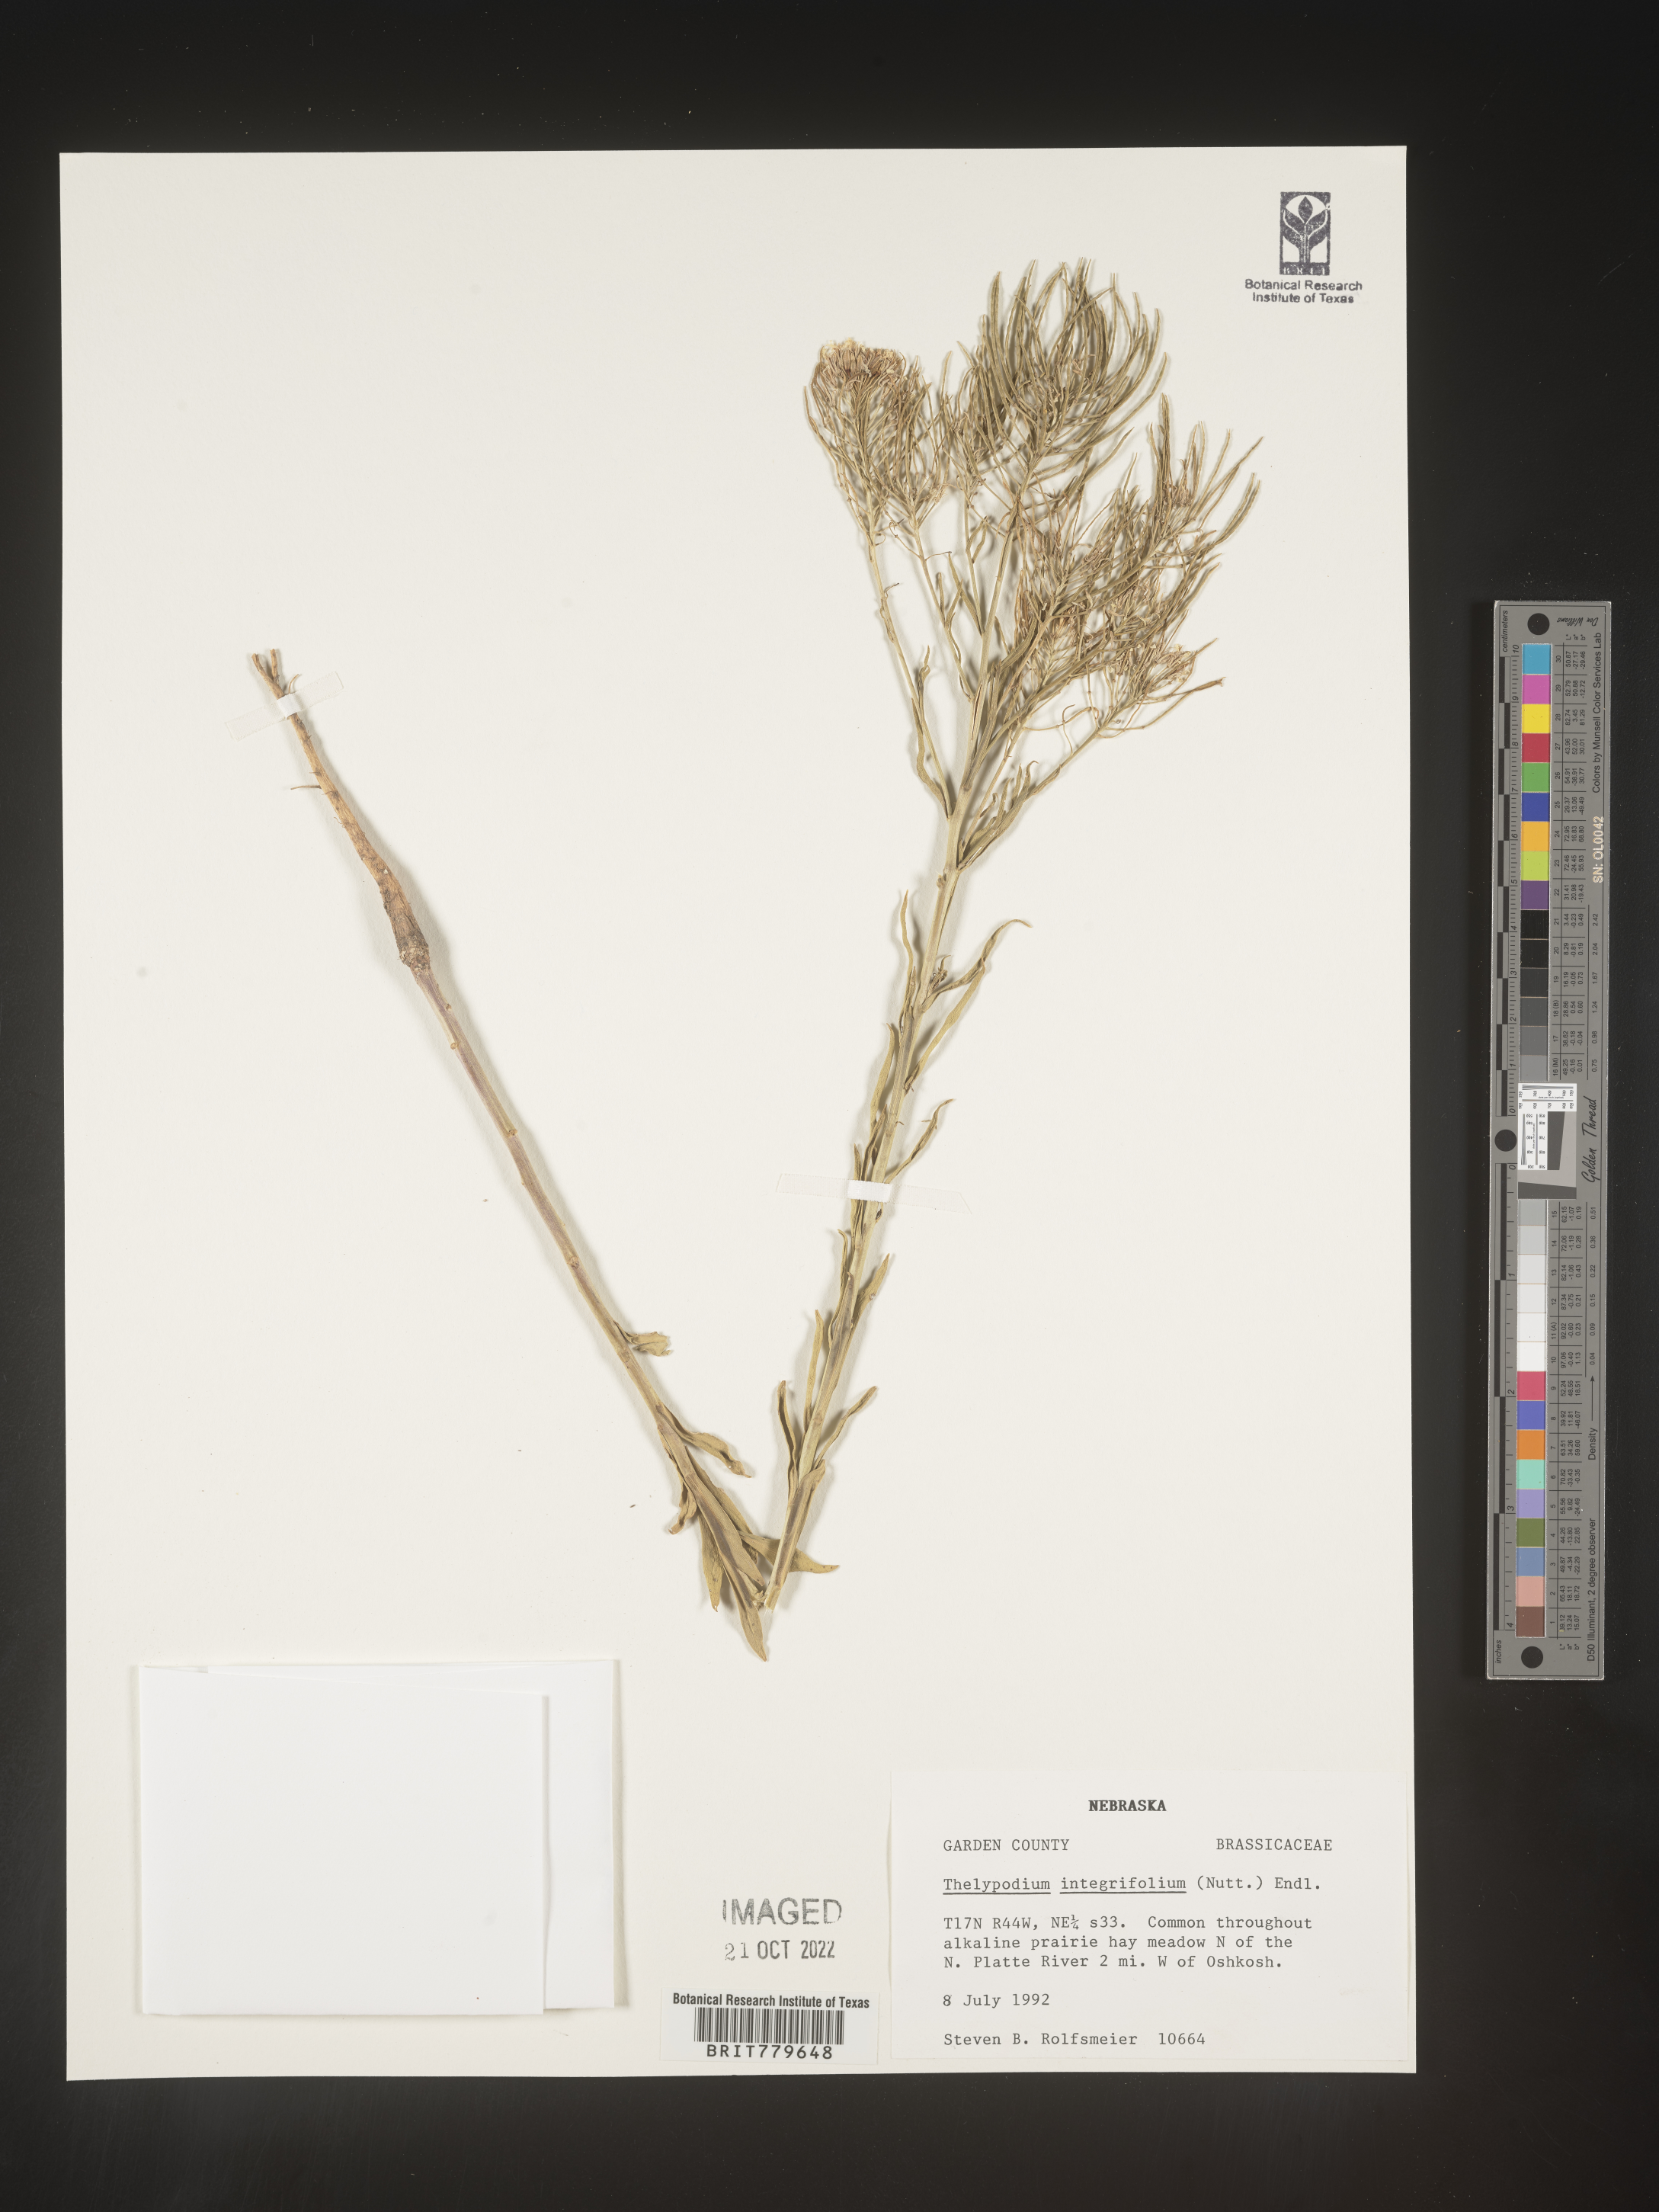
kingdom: Plantae
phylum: Tracheophyta
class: Magnoliopsida
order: Brassicales
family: Brassicaceae
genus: Thelypodium
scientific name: Thelypodium
